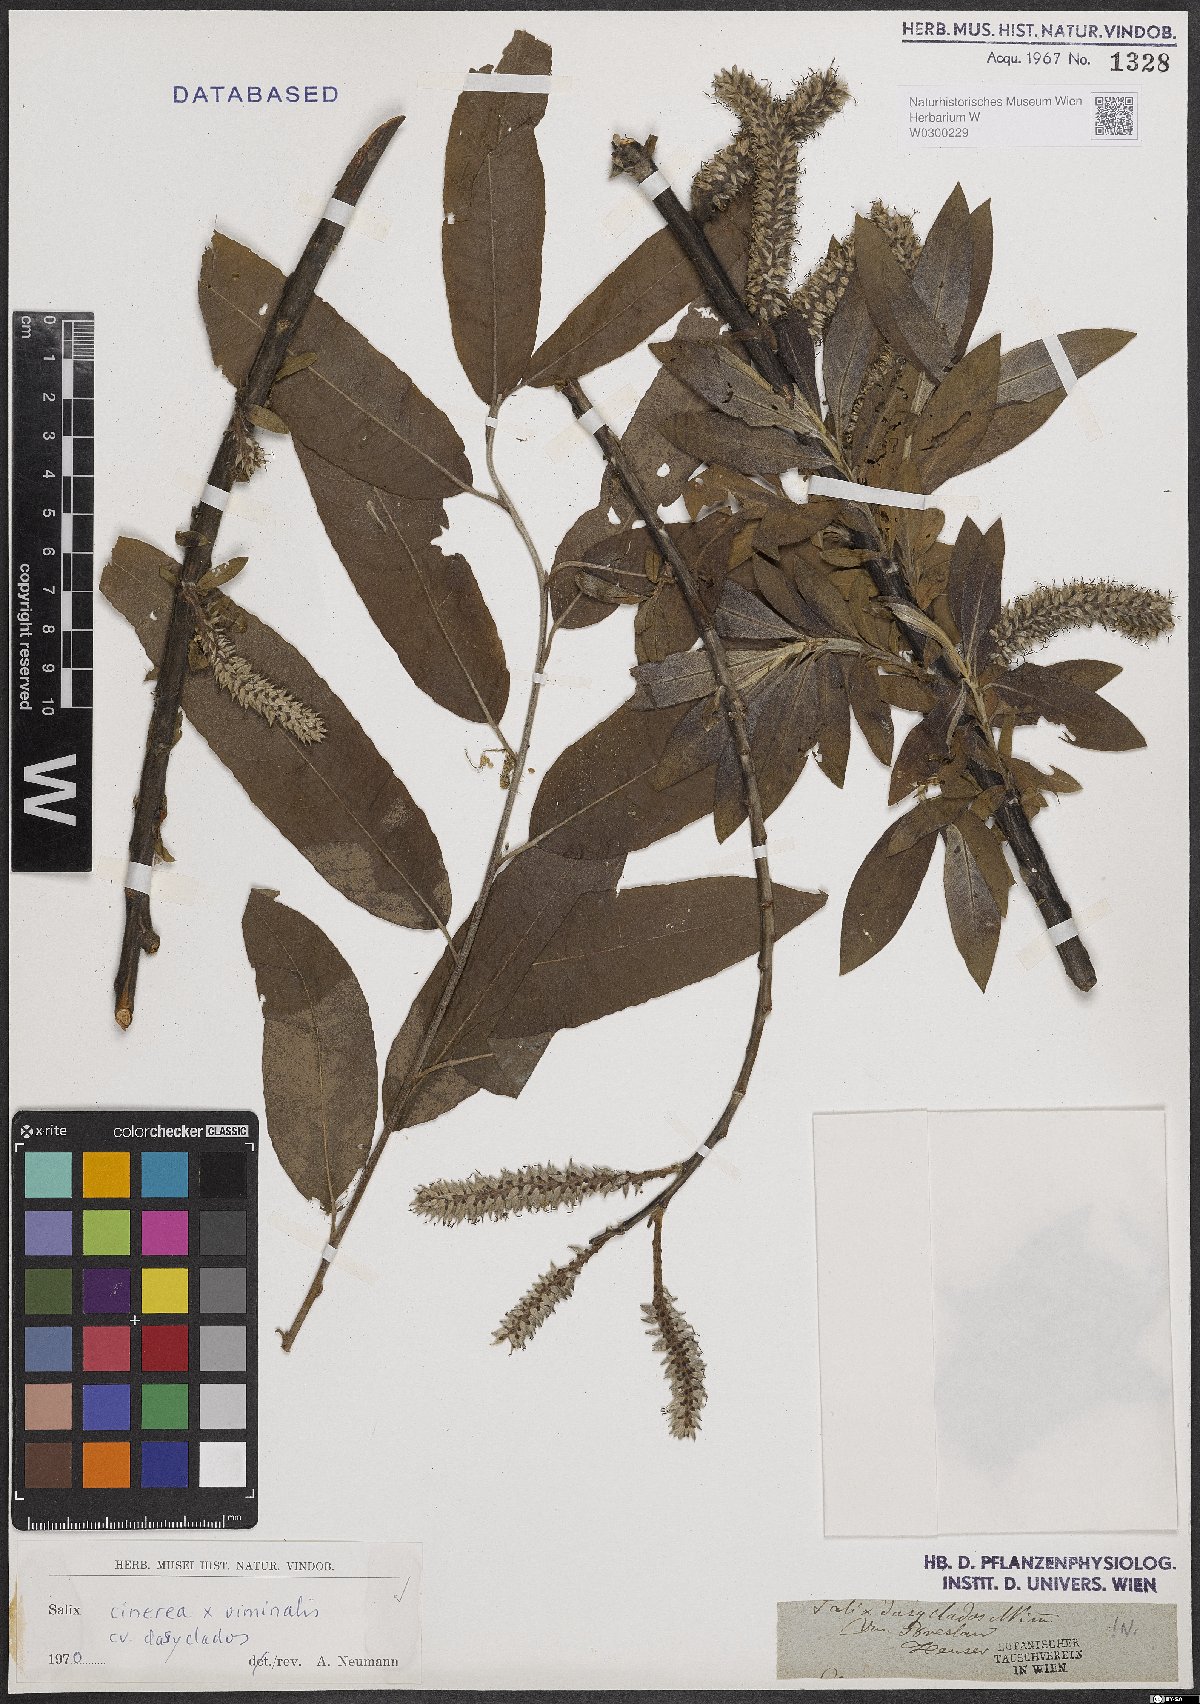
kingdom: Plantae
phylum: Tracheophyta
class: Magnoliopsida
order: Malpighiales
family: Salicaceae
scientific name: Salicaceae
